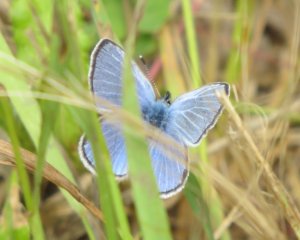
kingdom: Animalia
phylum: Arthropoda
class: Insecta
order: Lepidoptera
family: Lycaenidae
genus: Glaucopsyche
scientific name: Glaucopsyche lygdamus
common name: Silvery Blue
